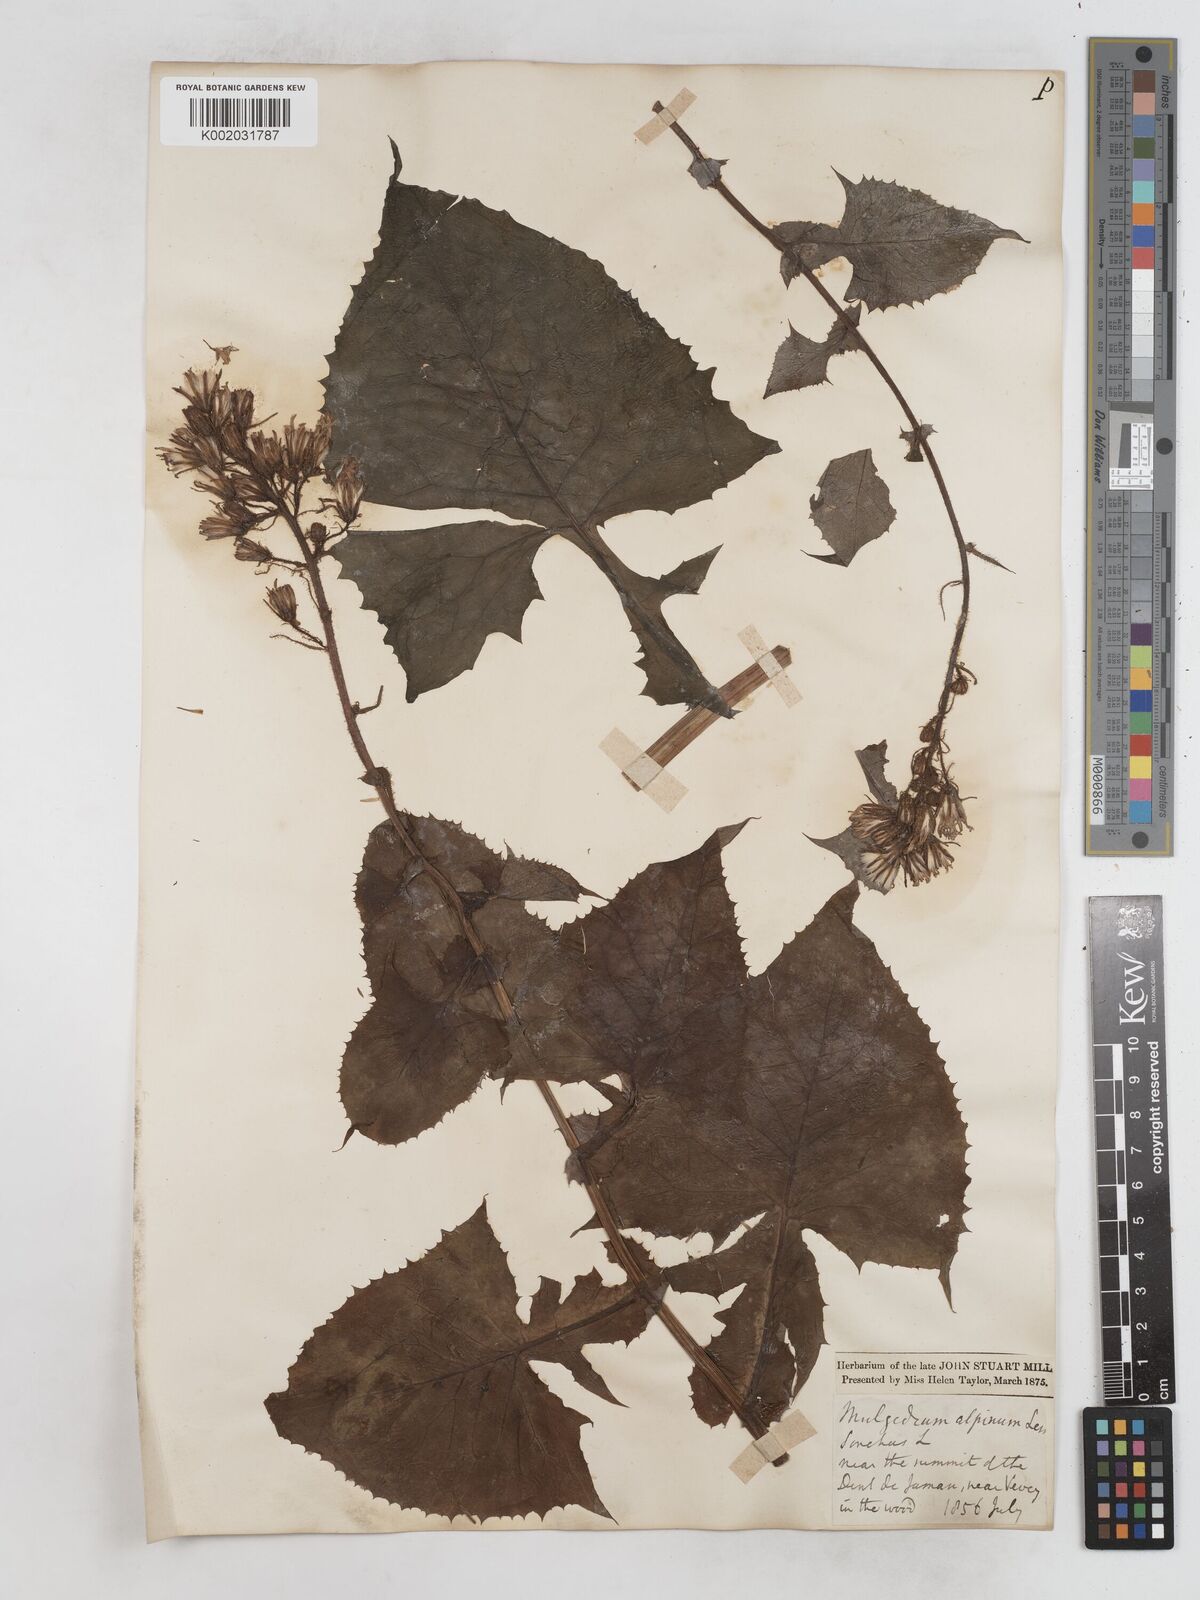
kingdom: Plantae
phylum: Tracheophyta
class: Magnoliopsida
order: Asterales
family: Asteraceae
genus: Cicerbita
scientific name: Cicerbita alpina
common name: Alpine blue-sow-thistle
